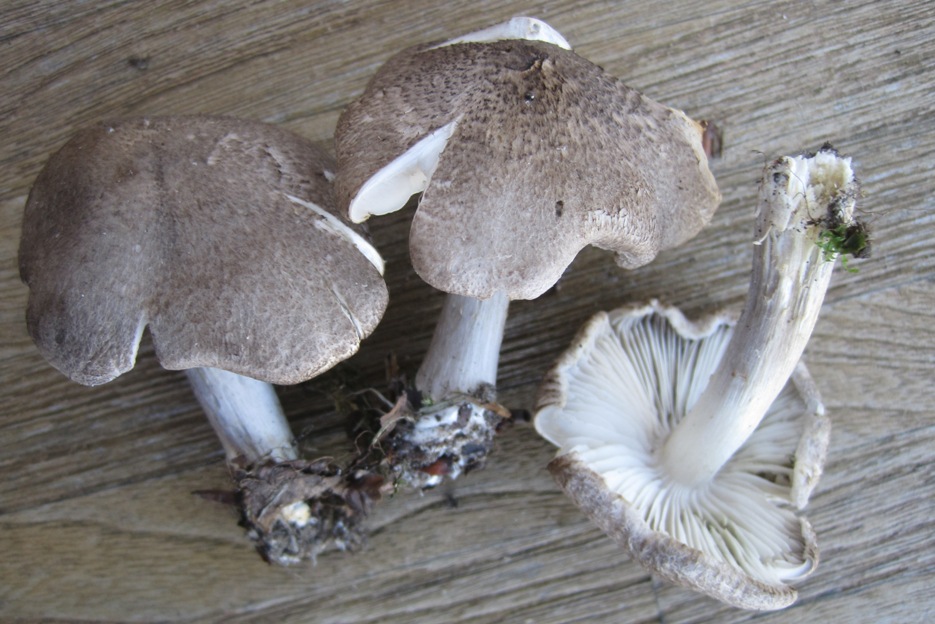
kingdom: Fungi
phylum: Basidiomycota
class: Agaricomycetes
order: Agaricales
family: Tricholomataceae
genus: Tricholoma
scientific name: Tricholoma scalpturatum
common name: gulplettet ridderhat
